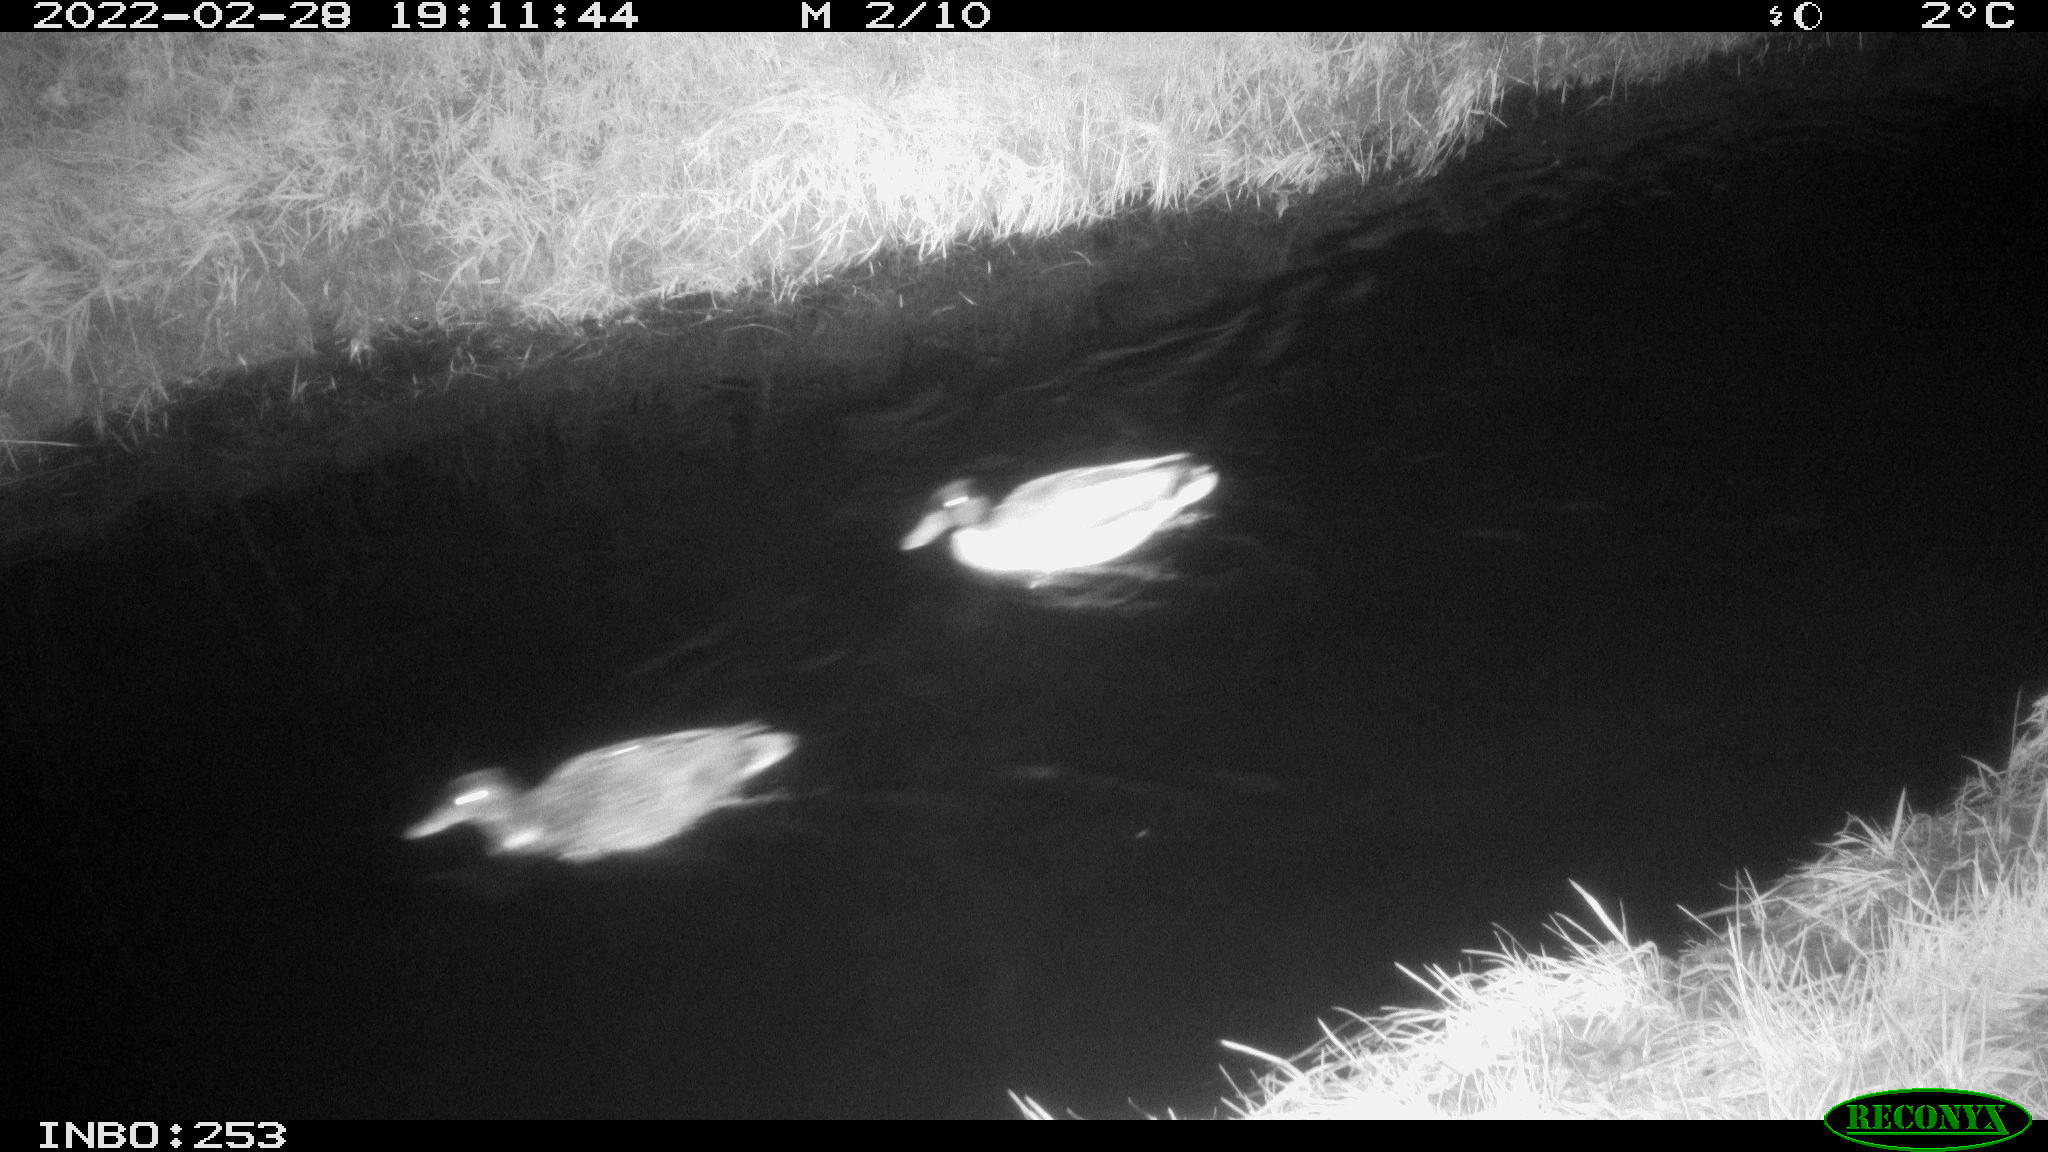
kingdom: Animalia
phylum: Chordata
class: Aves
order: Anseriformes
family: Anatidae
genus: Anas
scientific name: Anas platyrhynchos
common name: Mallard
